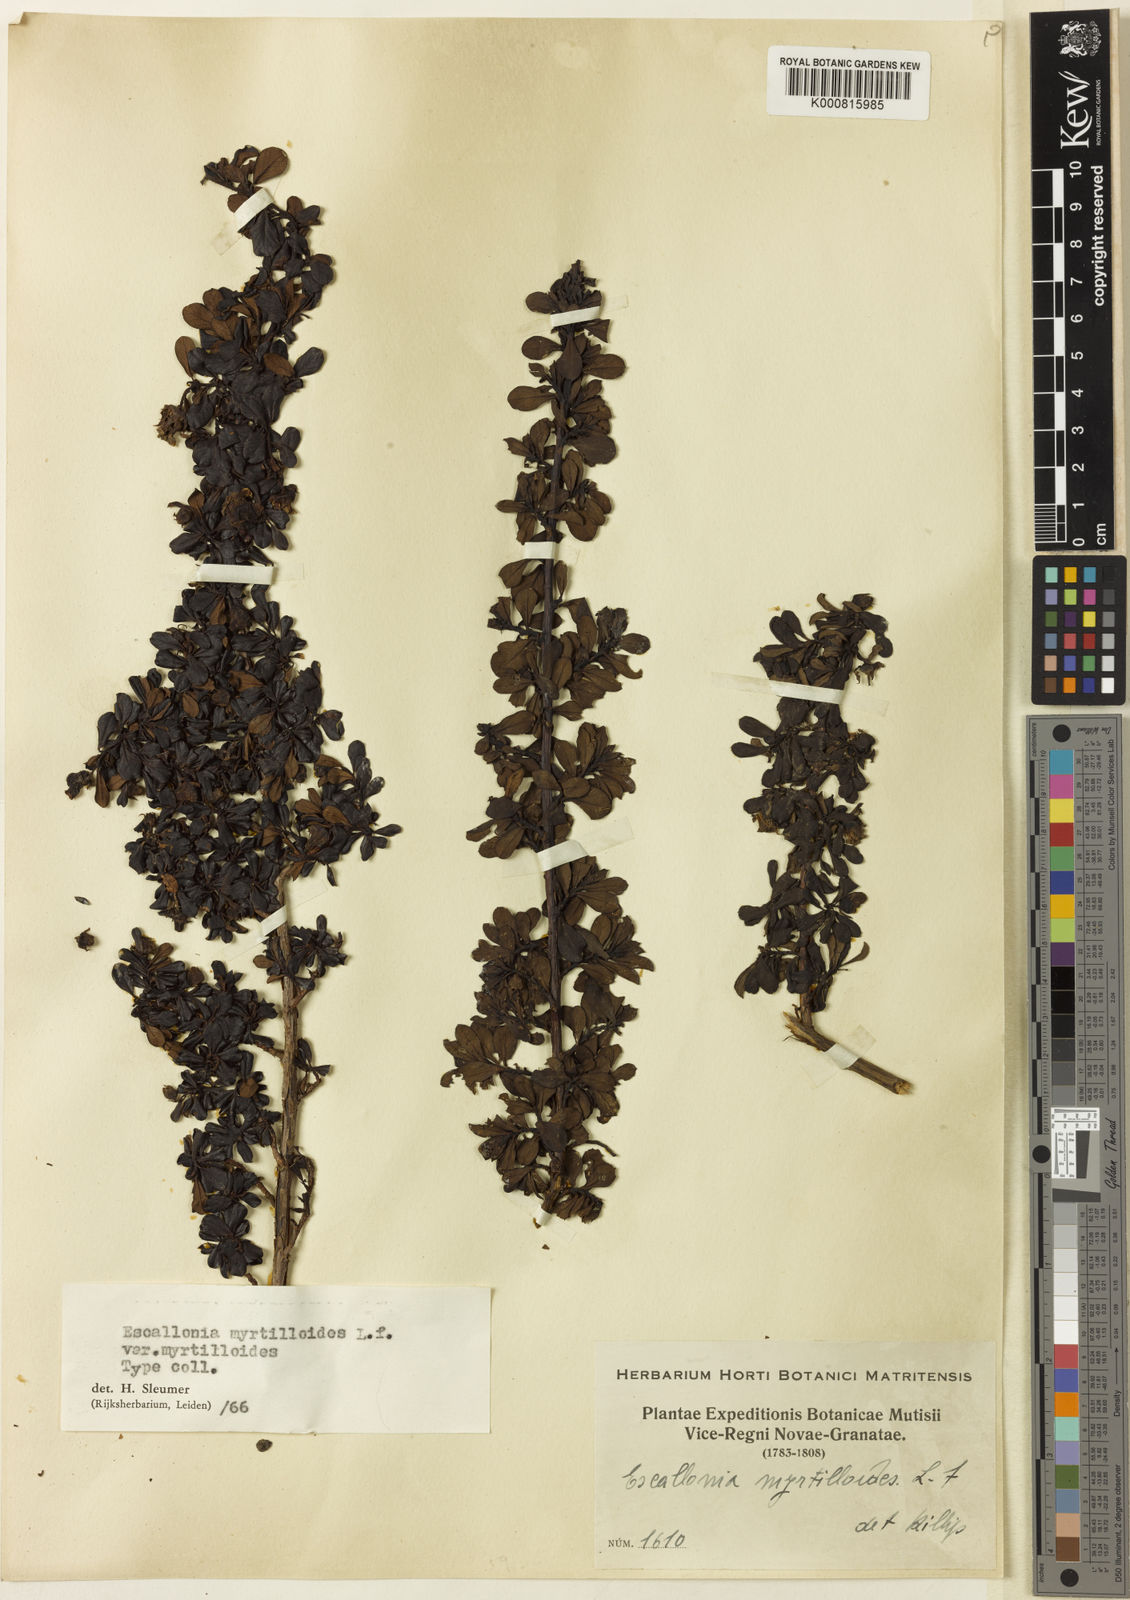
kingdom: Plantae
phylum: Tracheophyta
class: Magnoliopsida
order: Escalloniales
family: Escalloniaceae
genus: Escallonia
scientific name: Escallonia myrtilloides
